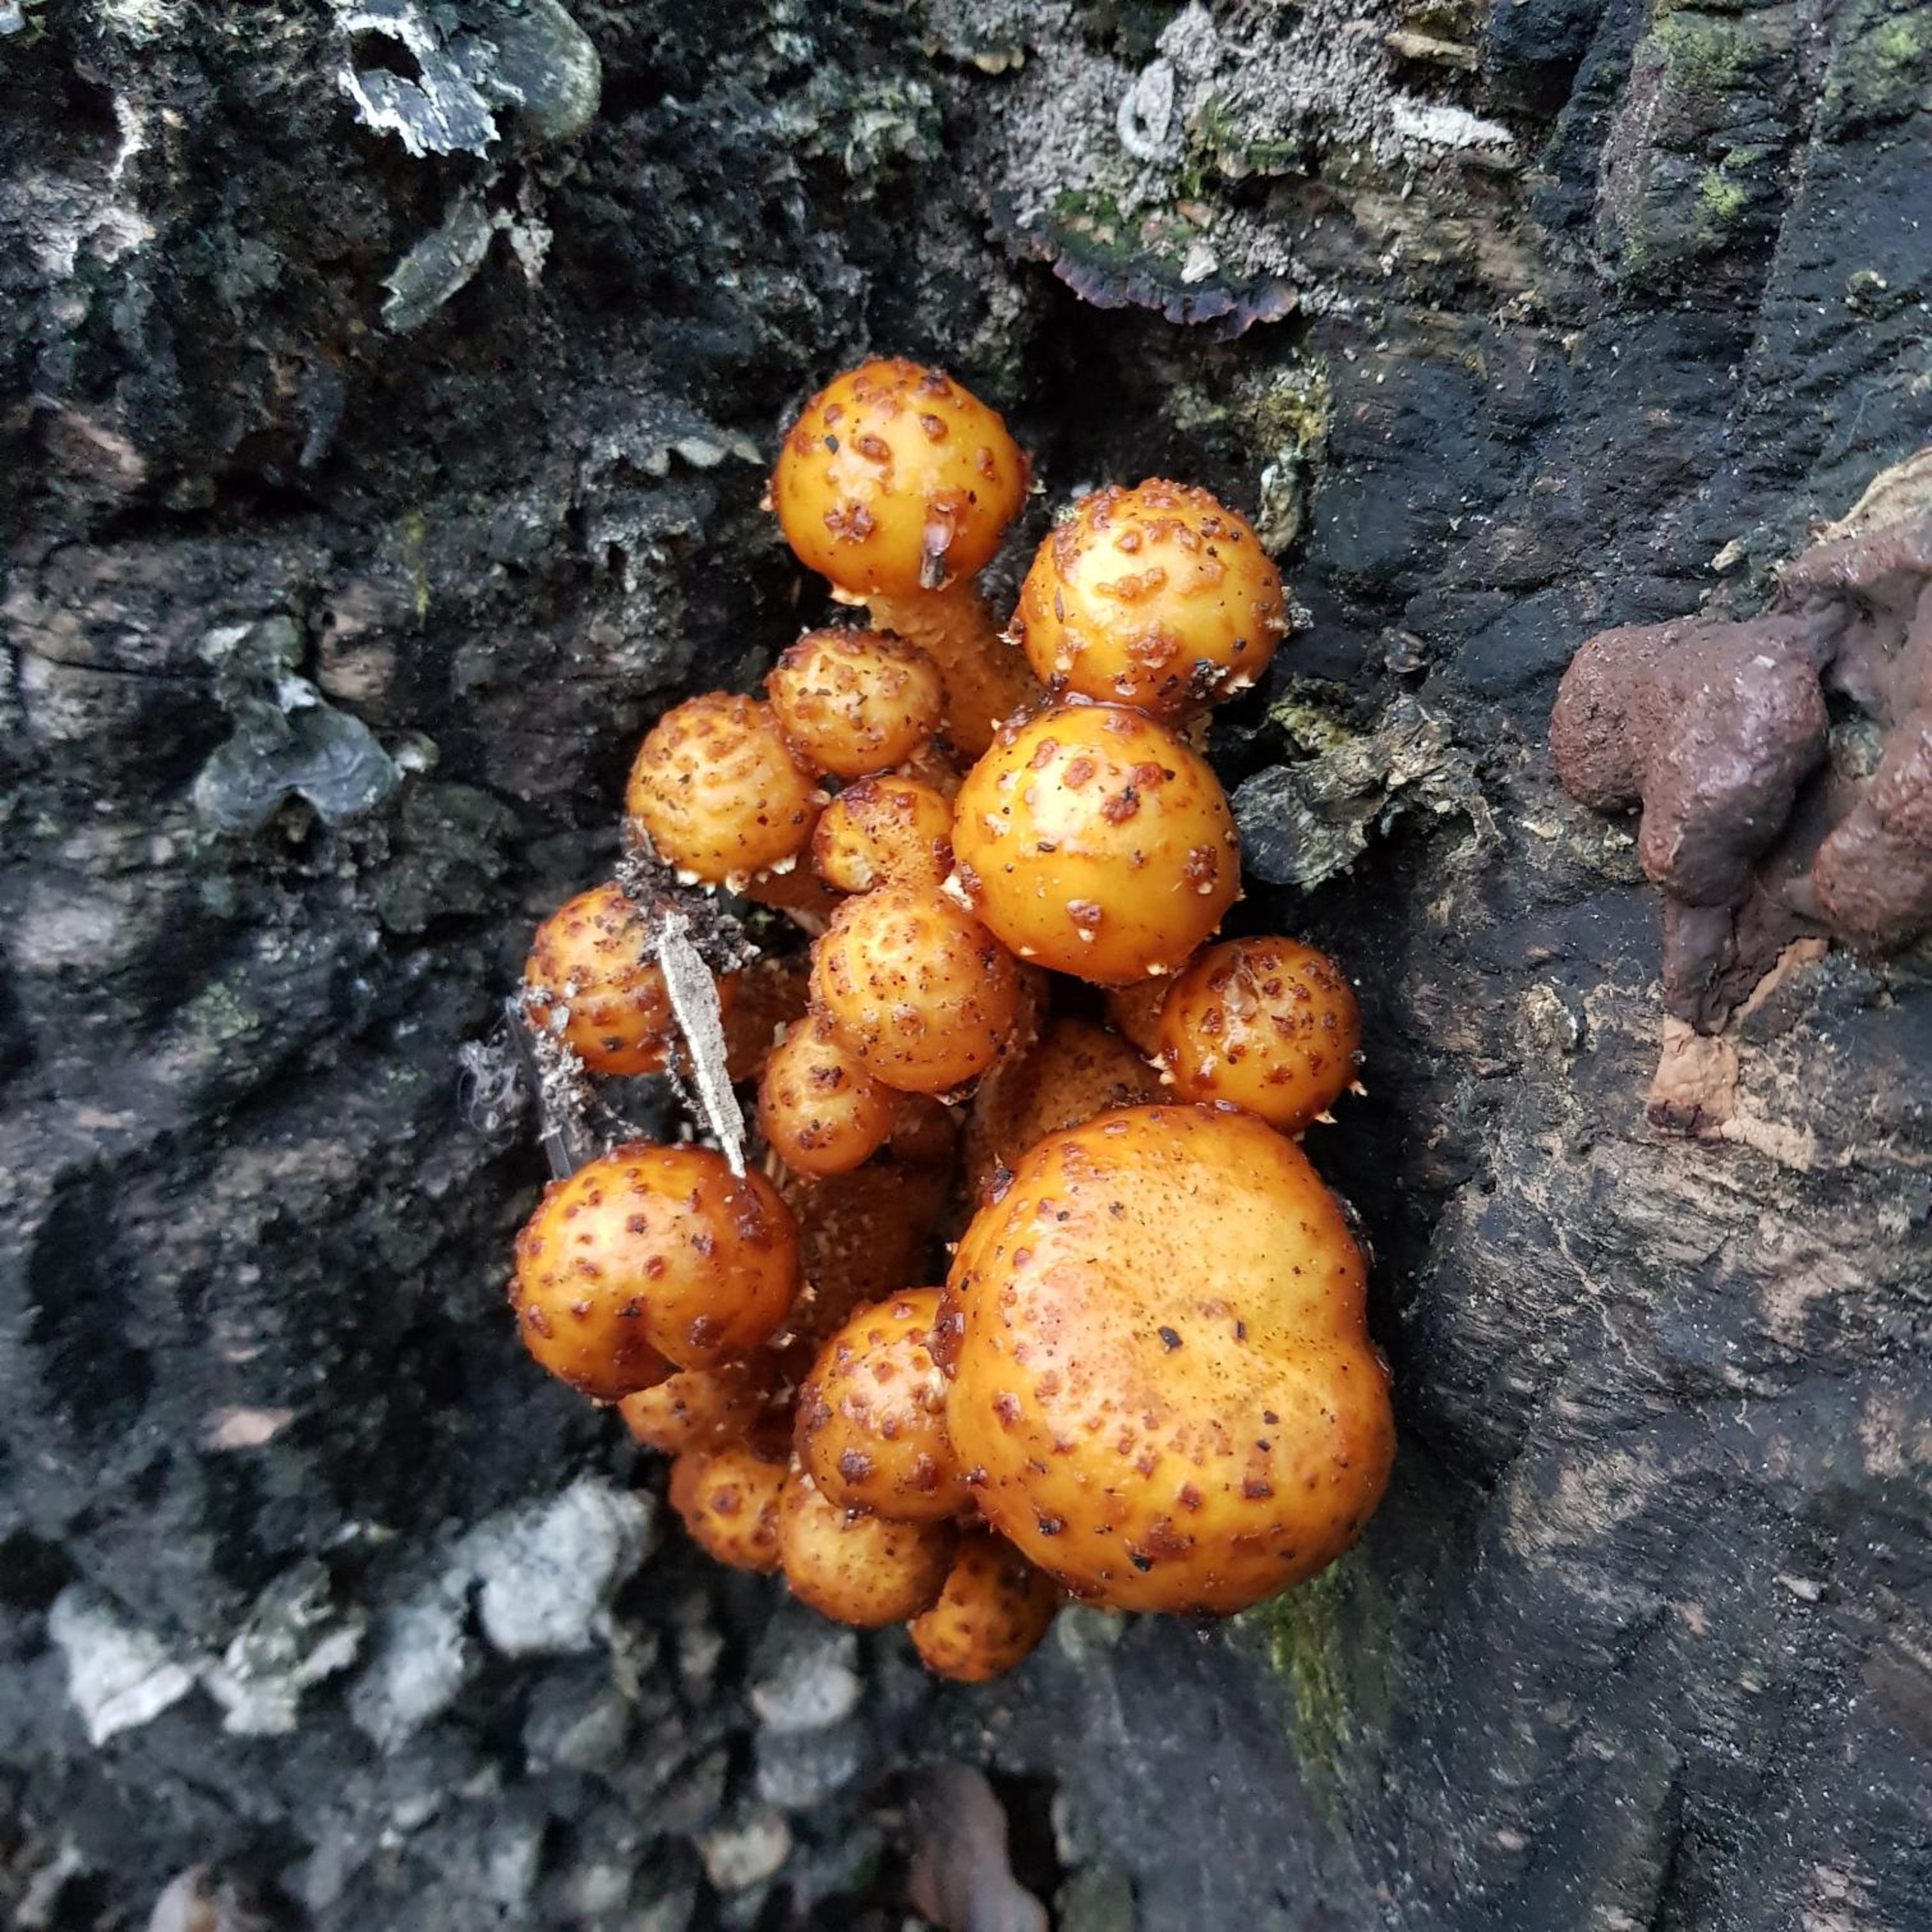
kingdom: Fungi
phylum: Basidiomycota
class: Agaricomycetes
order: Agaricales
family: Strophariaceae
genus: Pholiota
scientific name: Pholiota squarrosa
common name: Krumskællet skælhat
